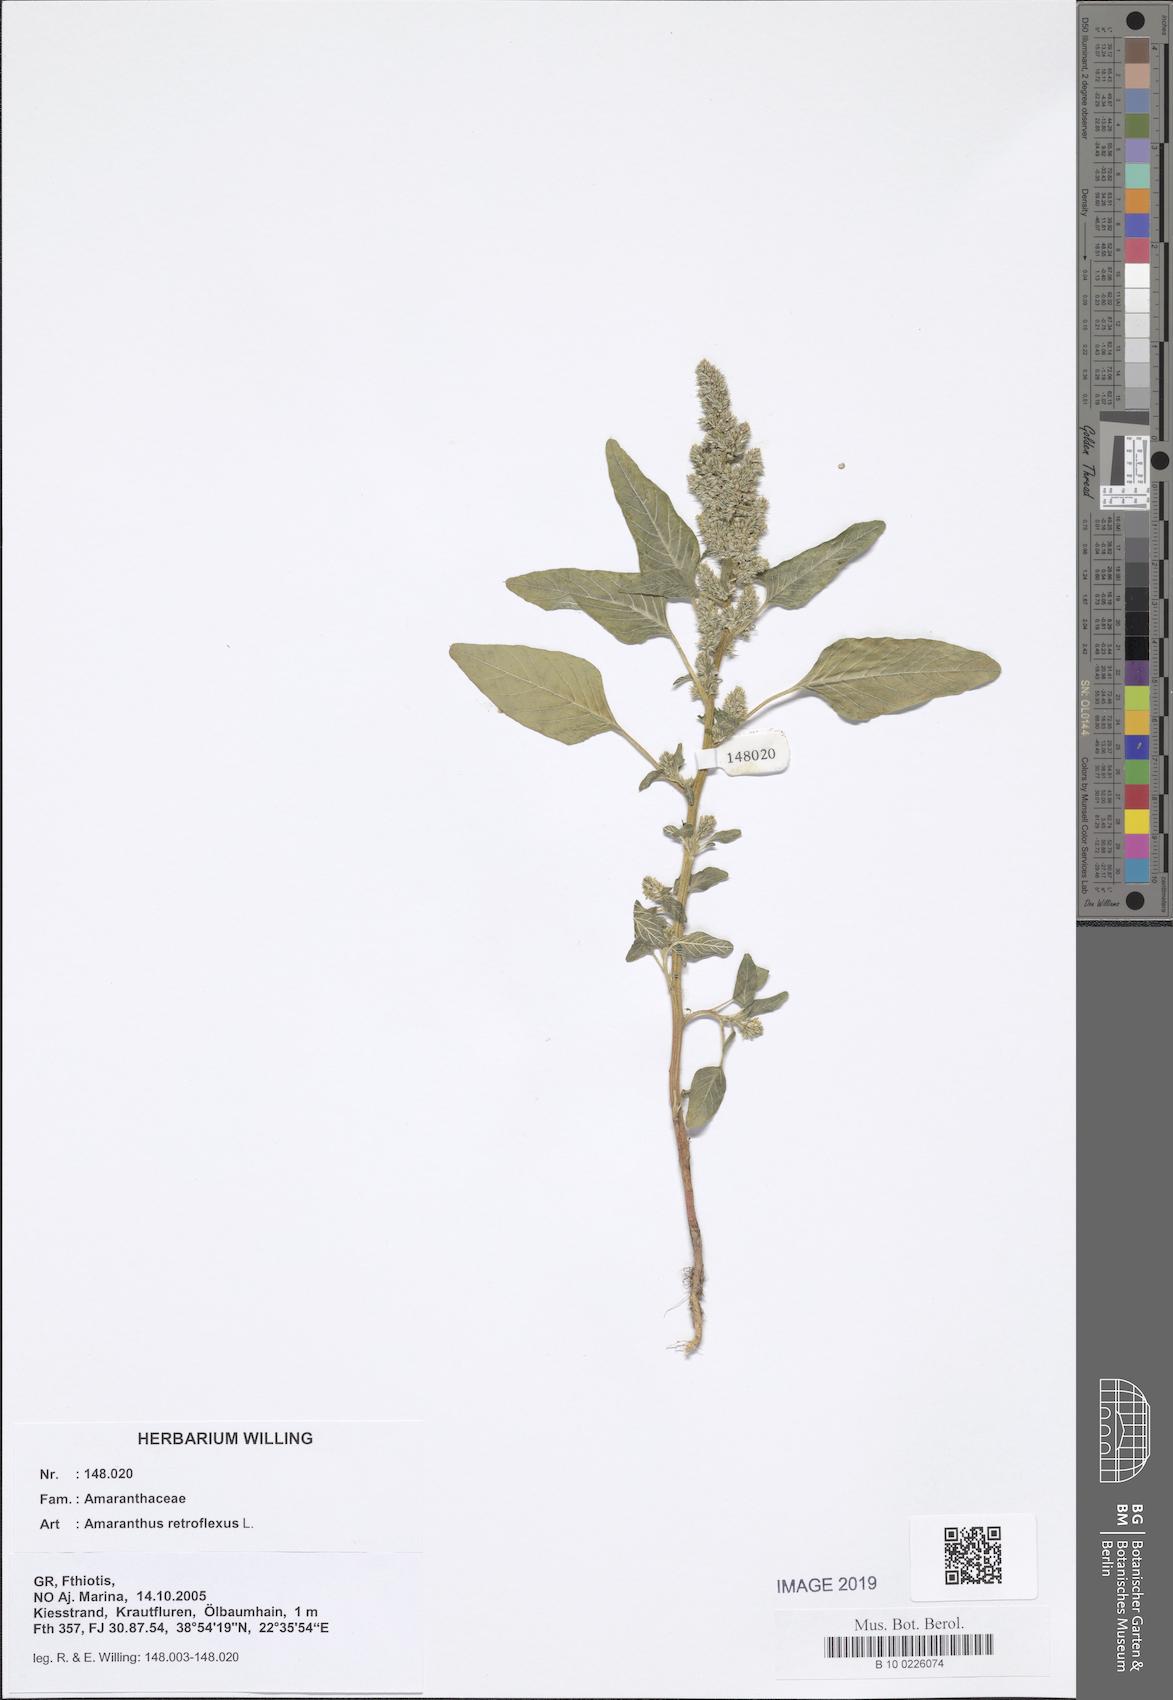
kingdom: Plantae
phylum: Tracheophyta
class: Magnoliopsida
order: Caryophyllales
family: Amaranthaceae
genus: Amaranthus
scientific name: Amaranthus retroflexus
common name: Redroot amaranth
